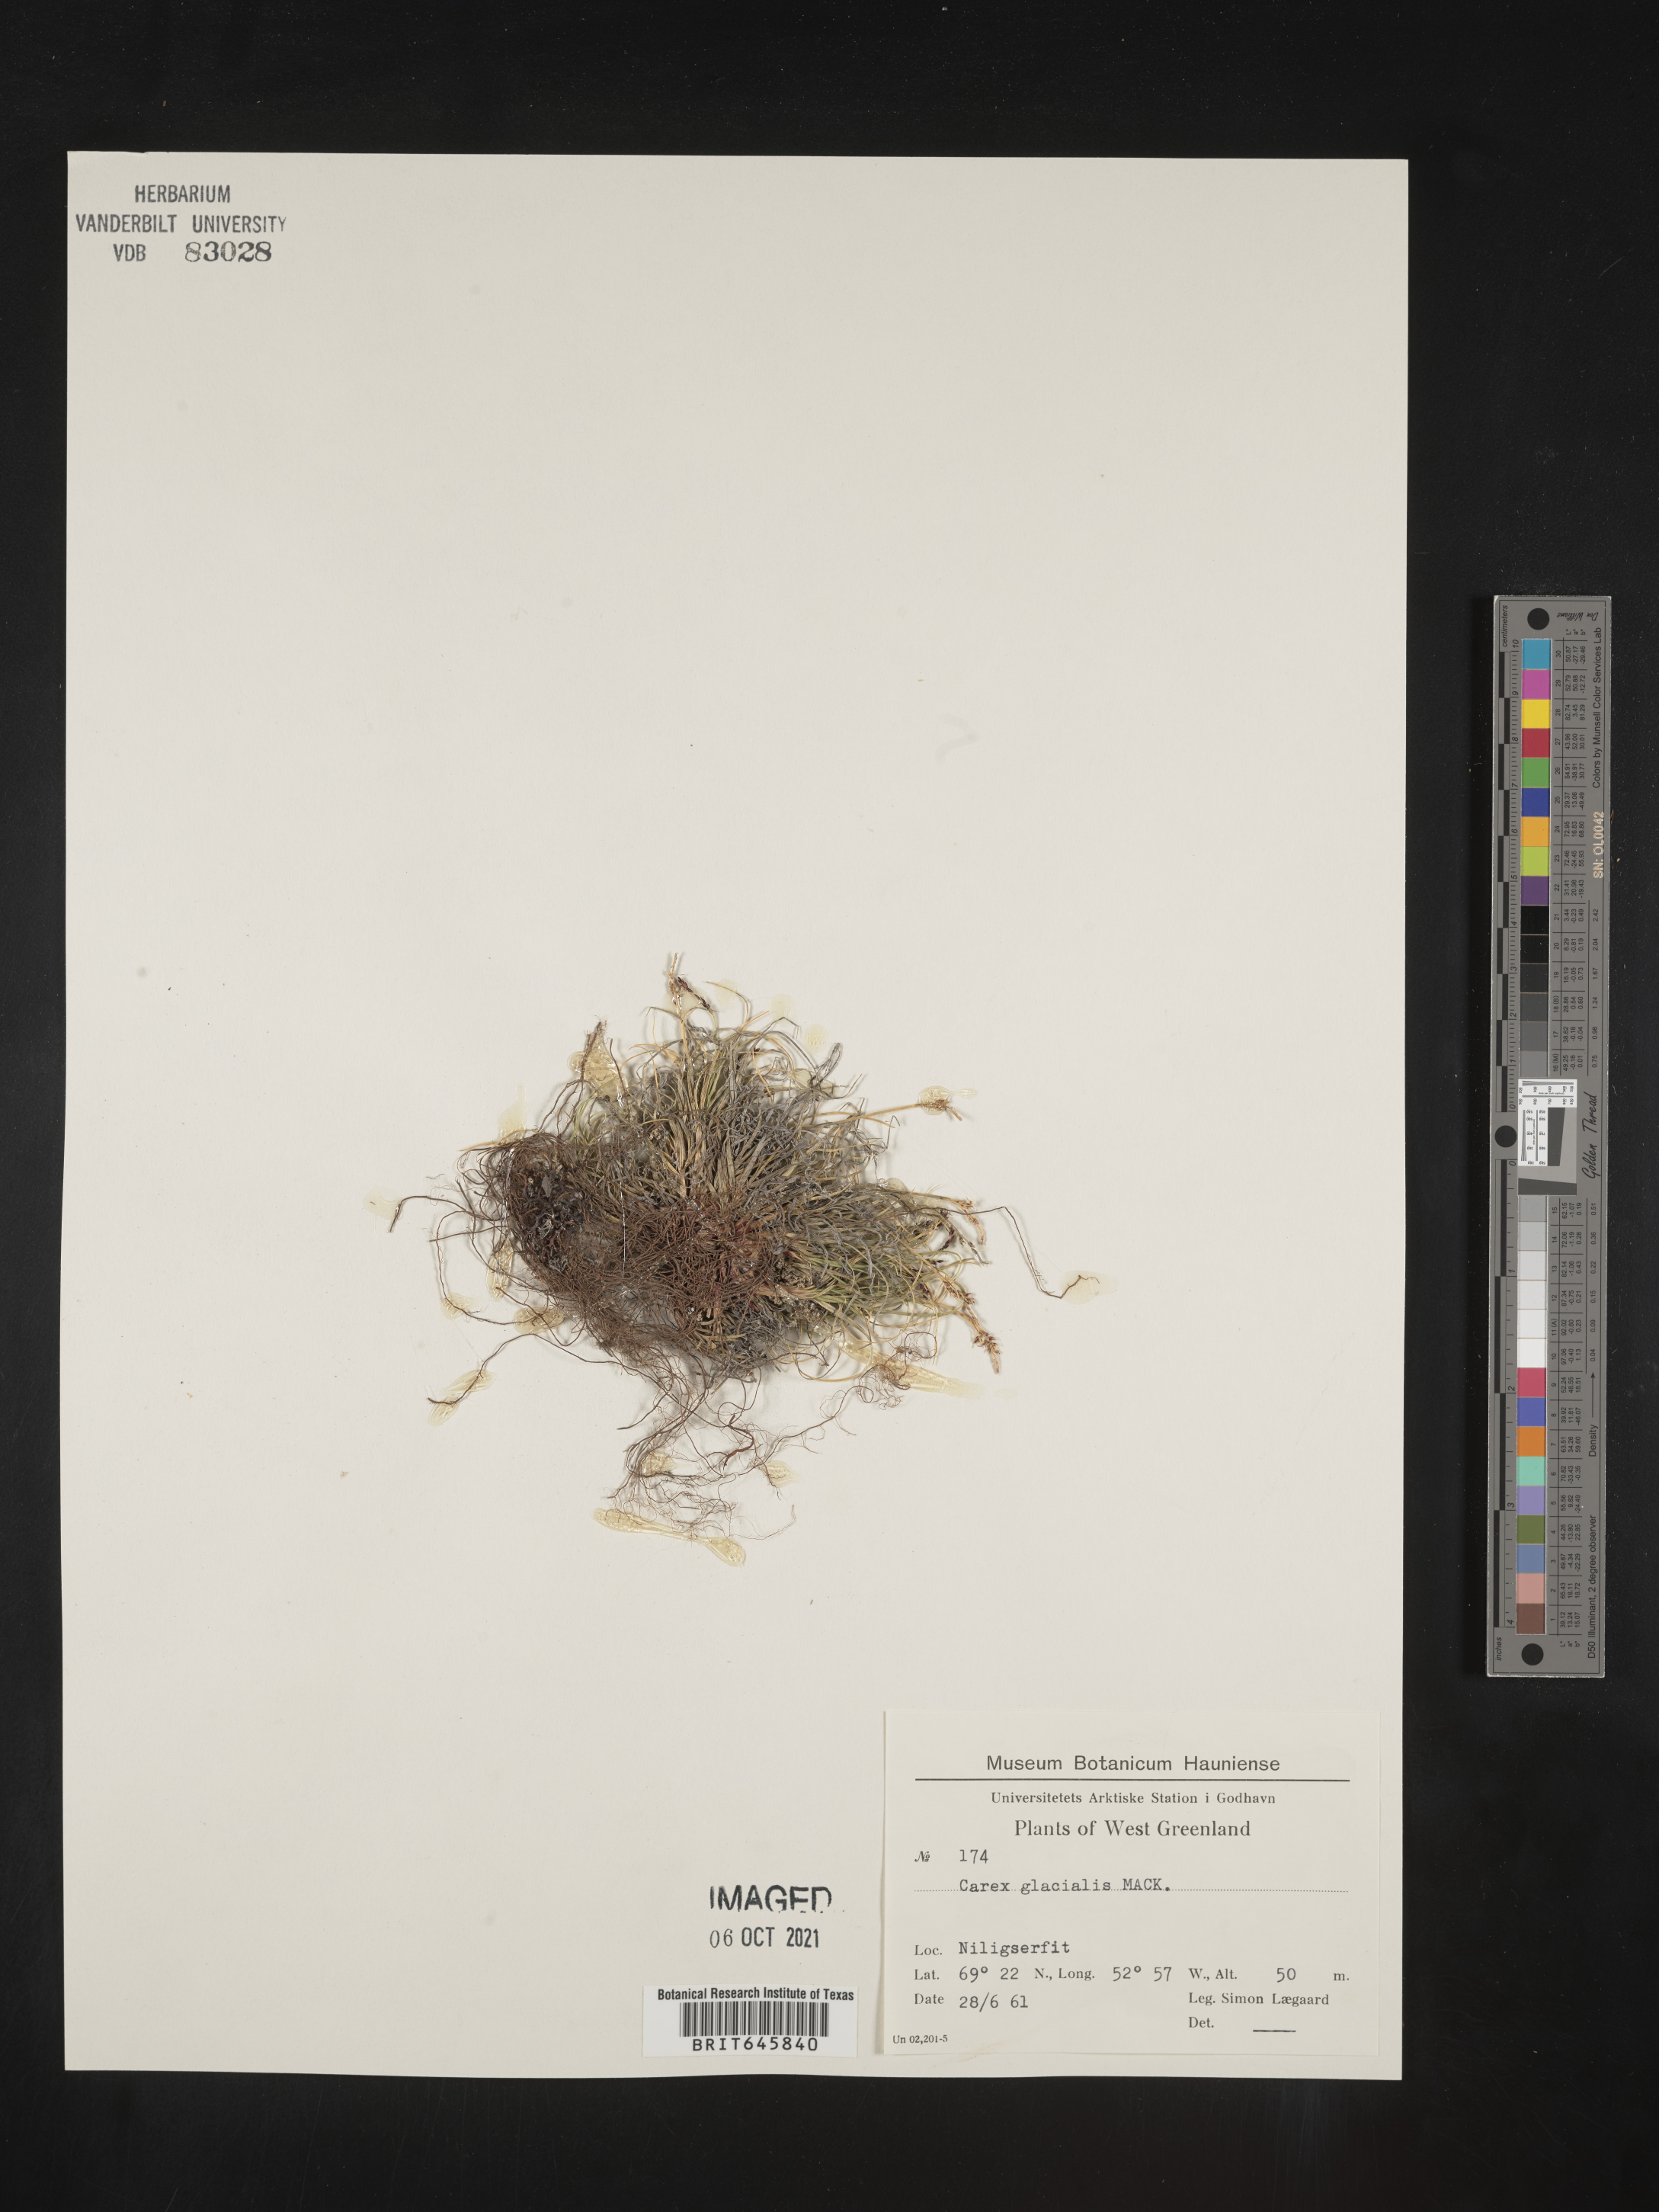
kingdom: Plantae
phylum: Tracheophyta
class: Liliopsida
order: Poales
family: Cyperaceae
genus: Carex
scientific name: Carex glacialis
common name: Newfoundland sedge
